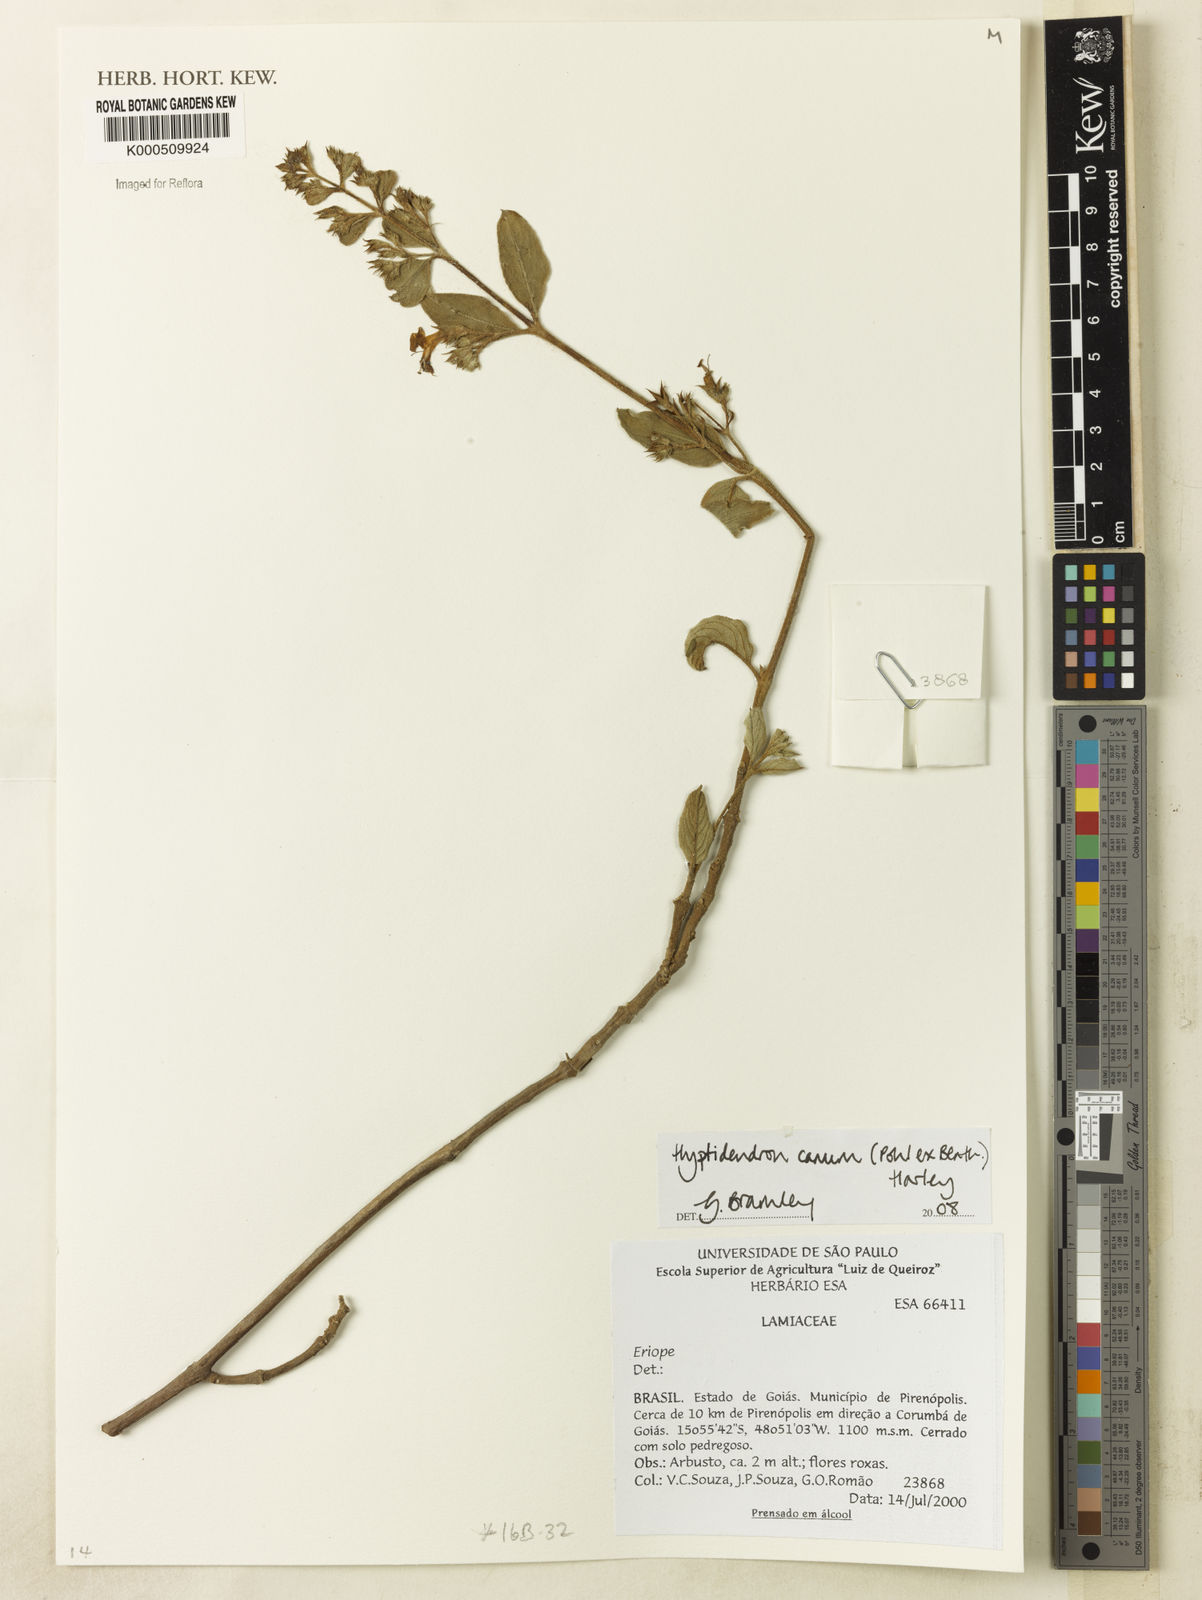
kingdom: Plantae
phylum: Tracheophyta
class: Magnoliopsida
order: Lamiales
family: Lamiaceae
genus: Hyptidendron
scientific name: Hyptidendron canum
